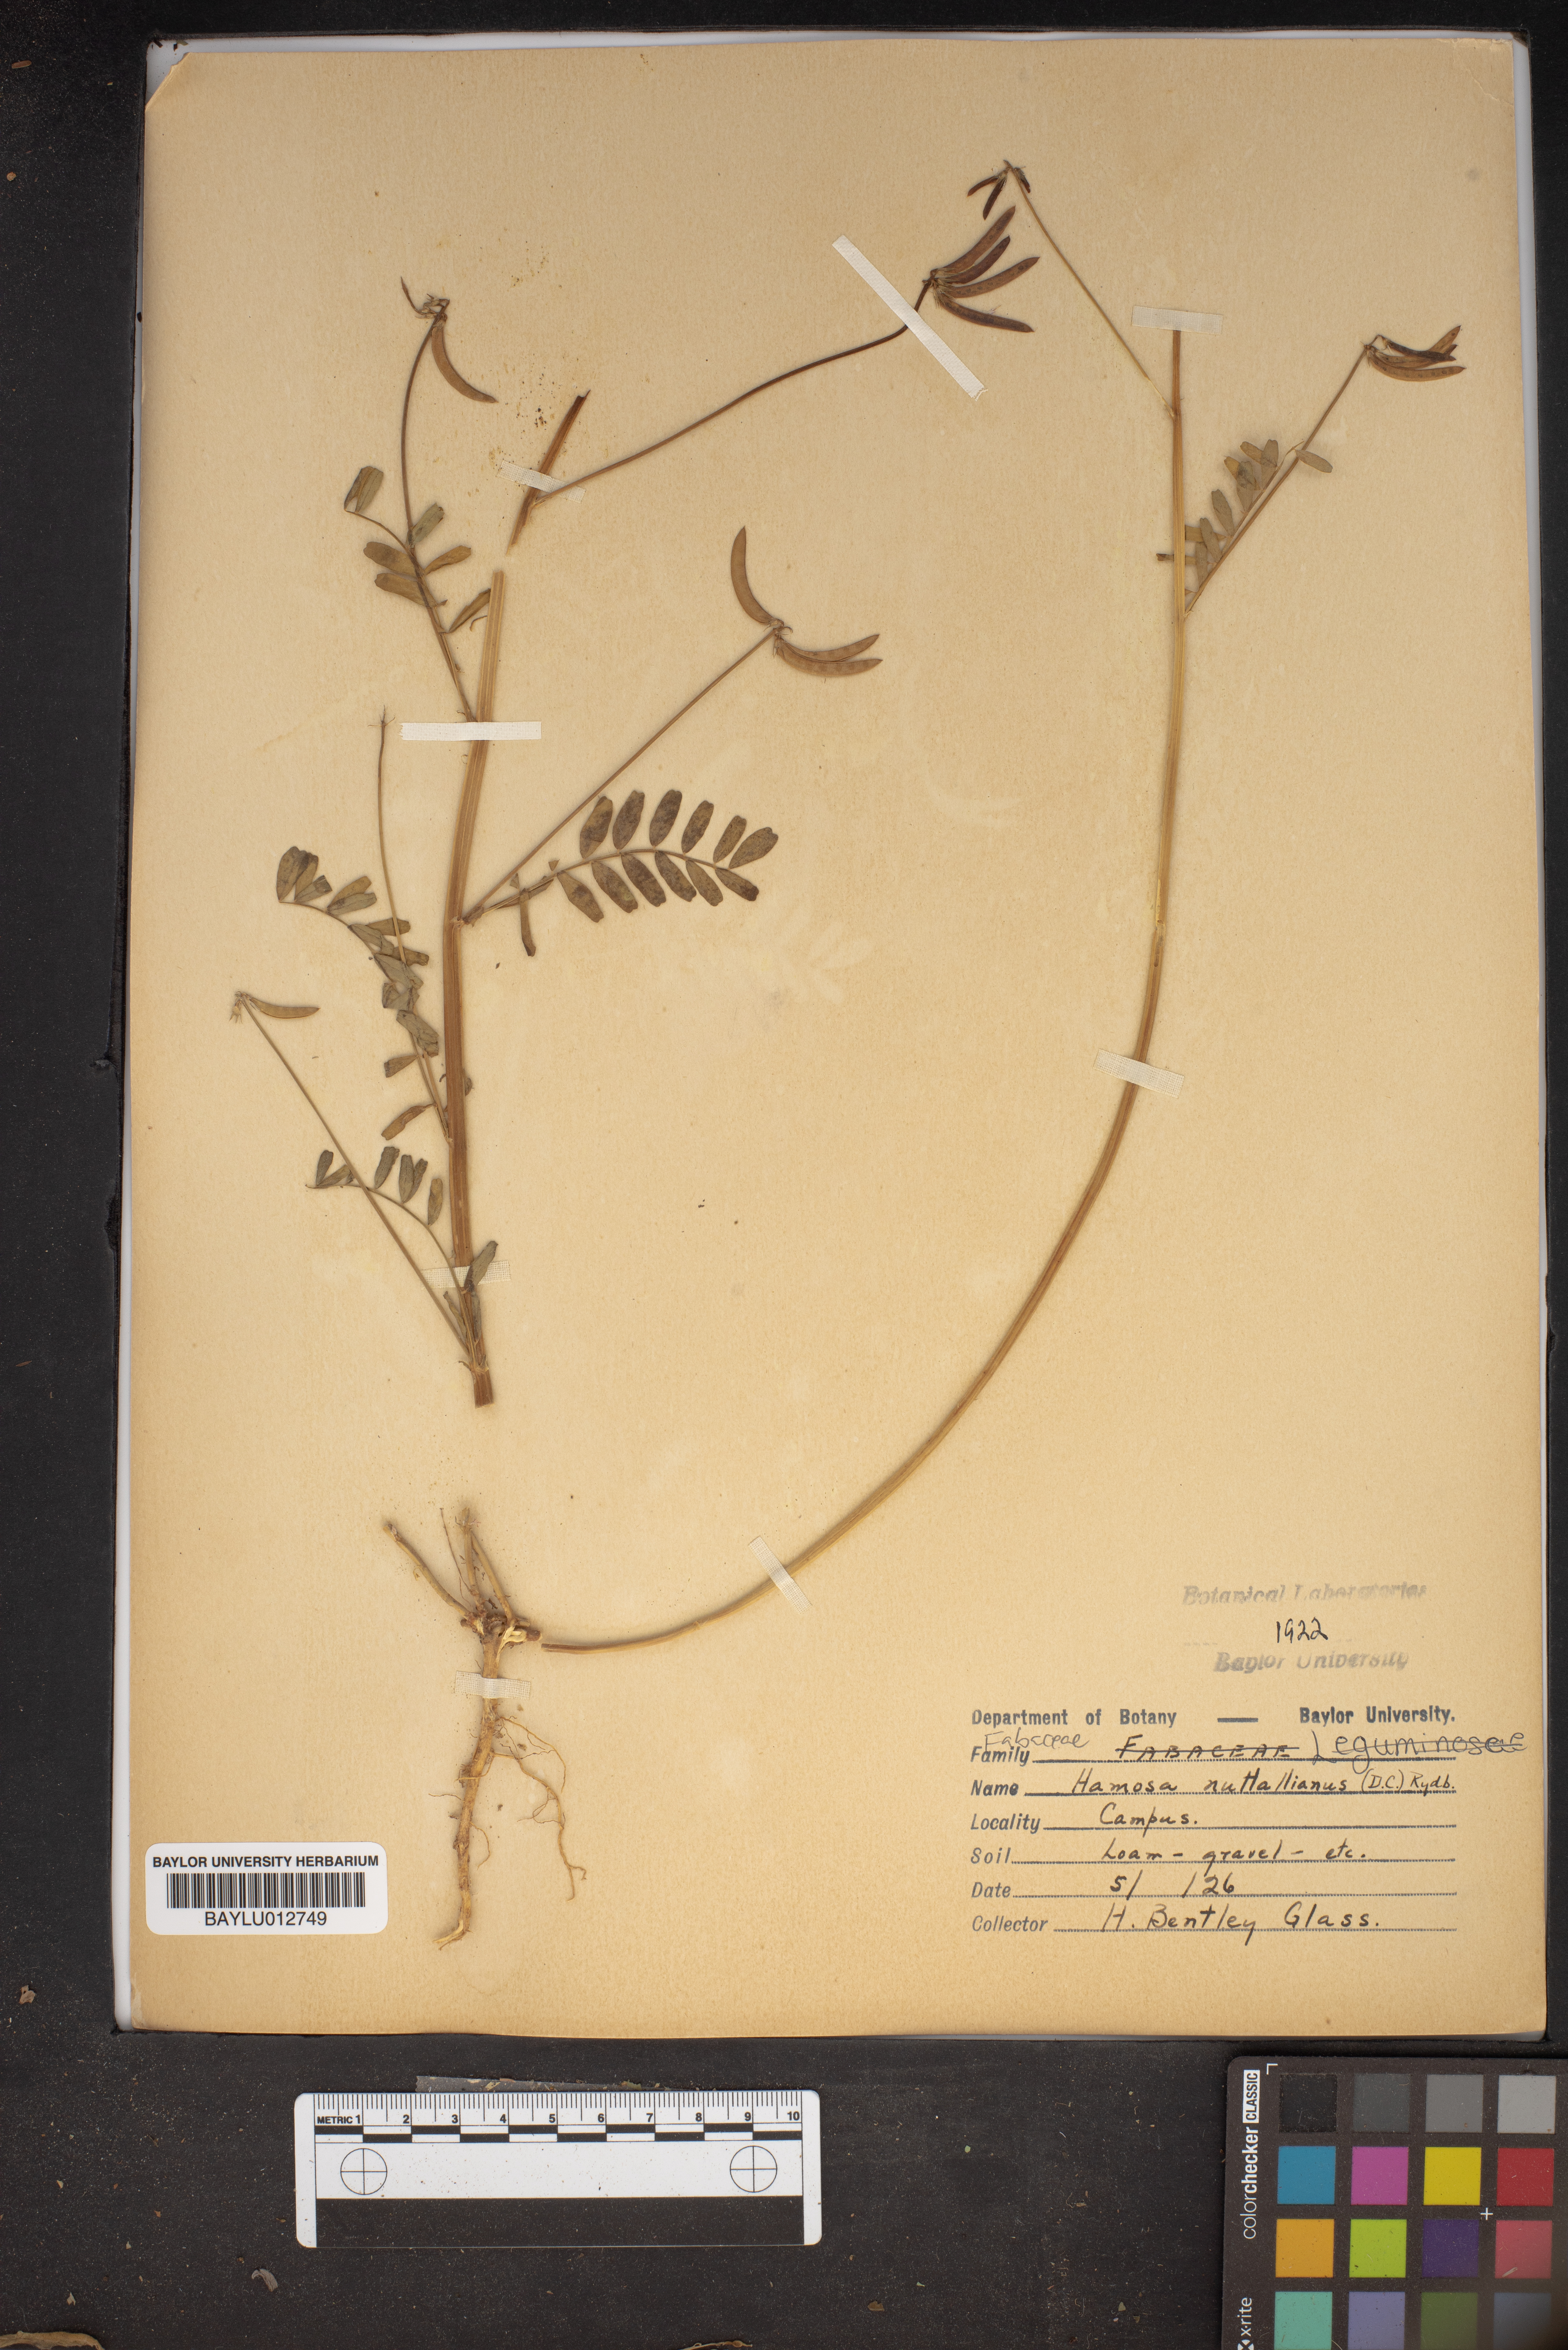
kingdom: Plantae
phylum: Tracheophyta
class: Magnoliopsida
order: Fabales
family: Fabaceae
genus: Astragalus
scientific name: Astragalus nuttallianus
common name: Smallflowered milkvetch
